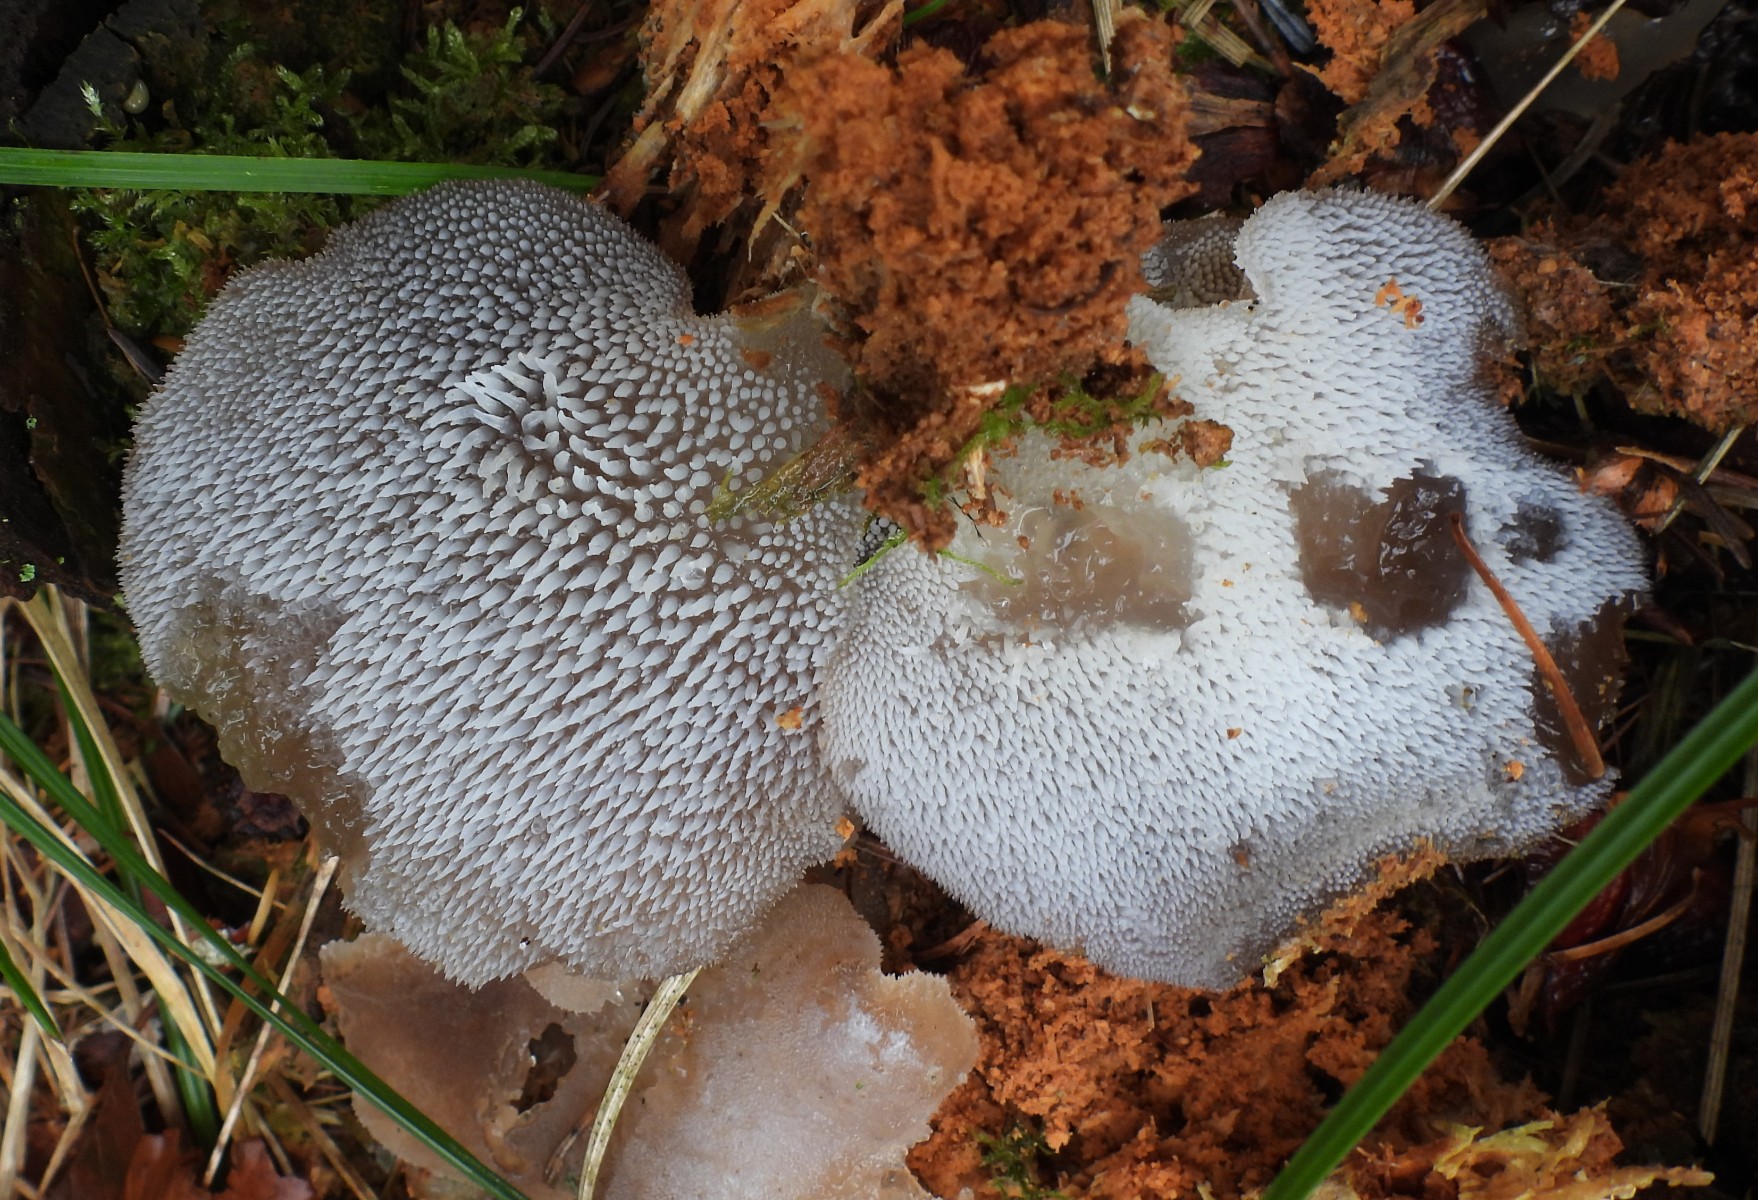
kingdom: Fungi
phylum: Basidiomycota
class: Agaricomycetes
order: Auriculariales
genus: Pseudohydnum
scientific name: Pseudohydnum gelatinosum
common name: bævretand
